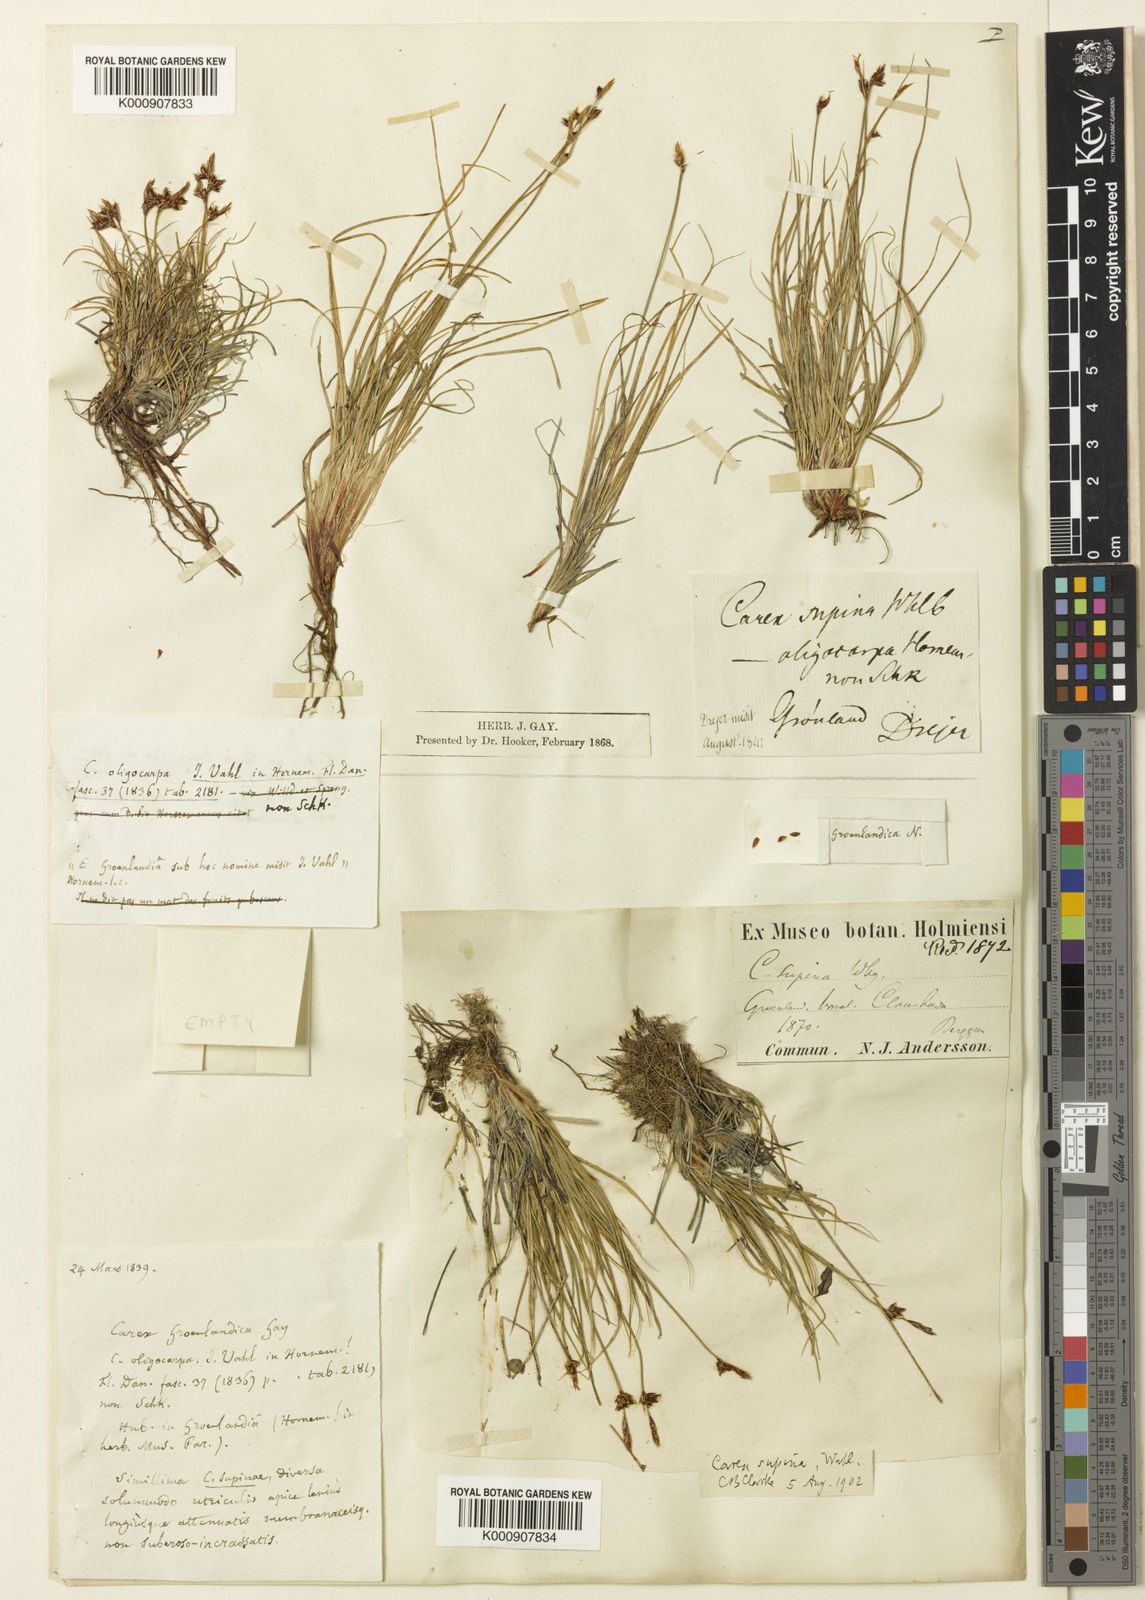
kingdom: Plantae
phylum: Tracheophyta
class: Liliopsida
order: Poales
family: Cyperaceae
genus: Carex
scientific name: Carex supina
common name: Lying-back sedge
